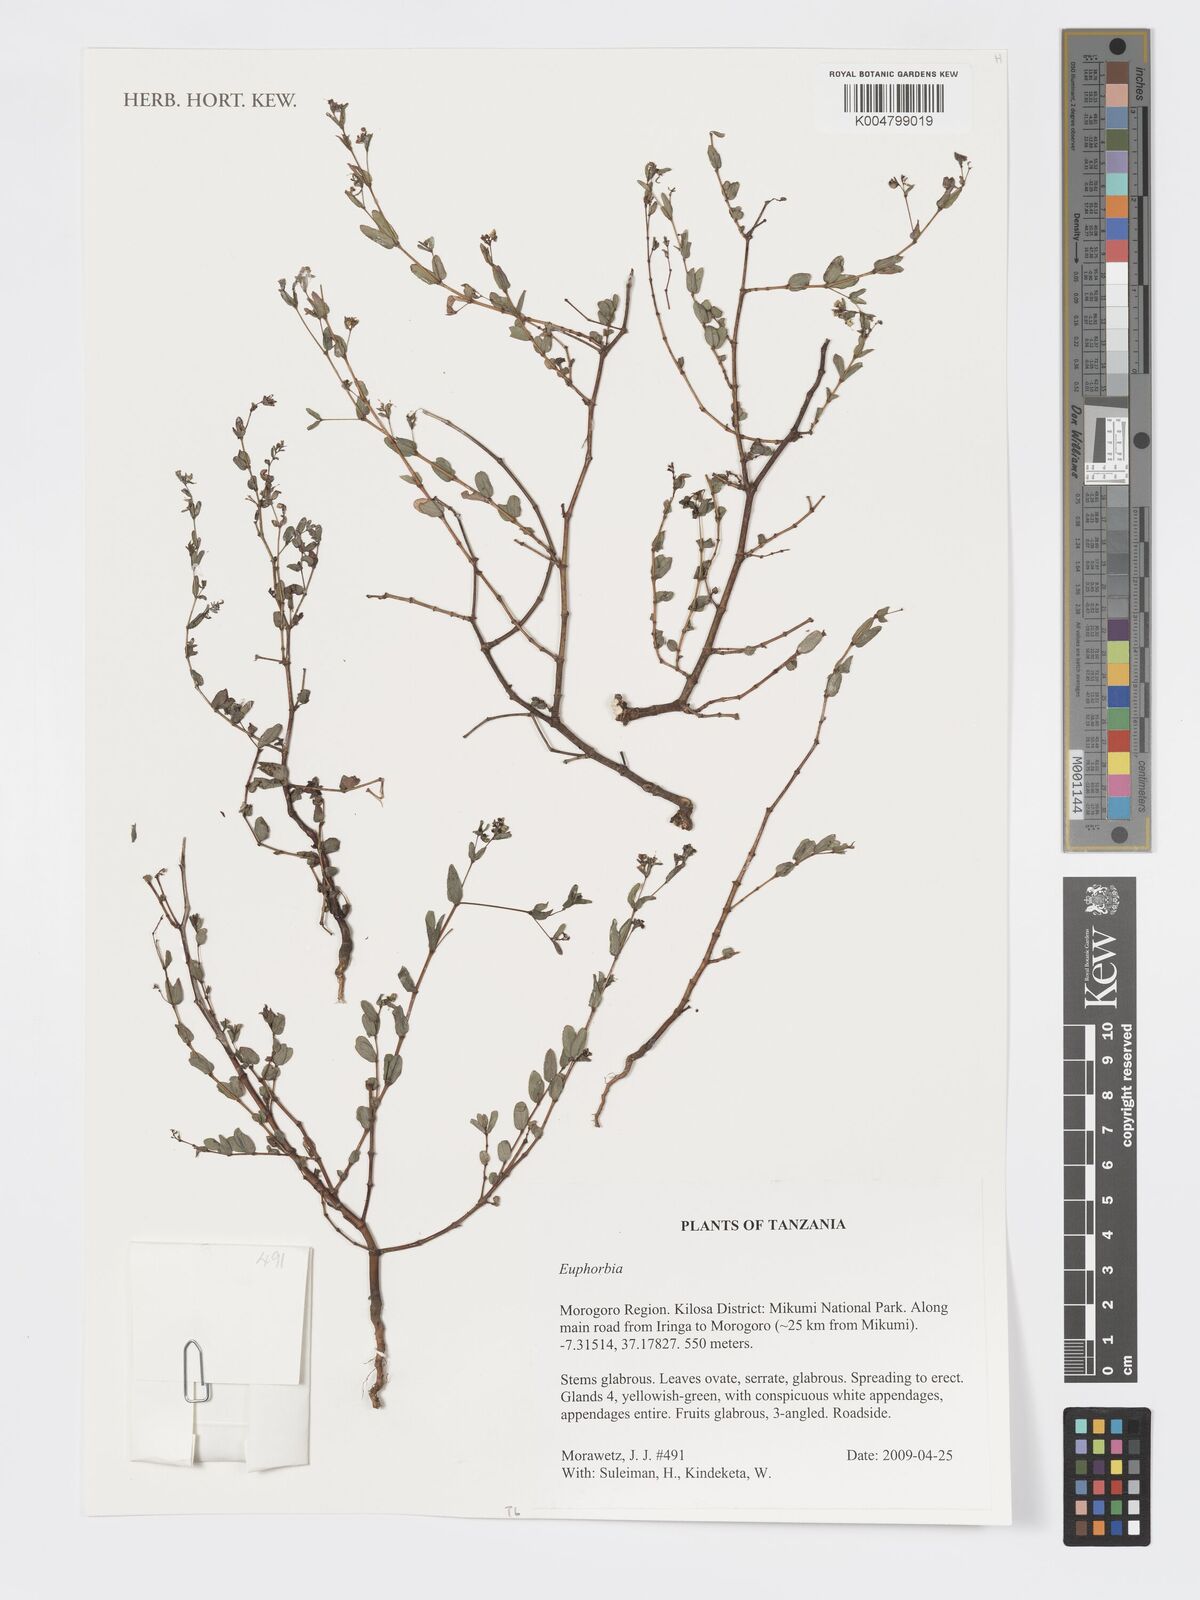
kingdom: Plantae
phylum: Tracheophyta
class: Magnoliopsida
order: Malpighiales
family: Euphorbiaceae
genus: Euphorbia
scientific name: Euphorbia
